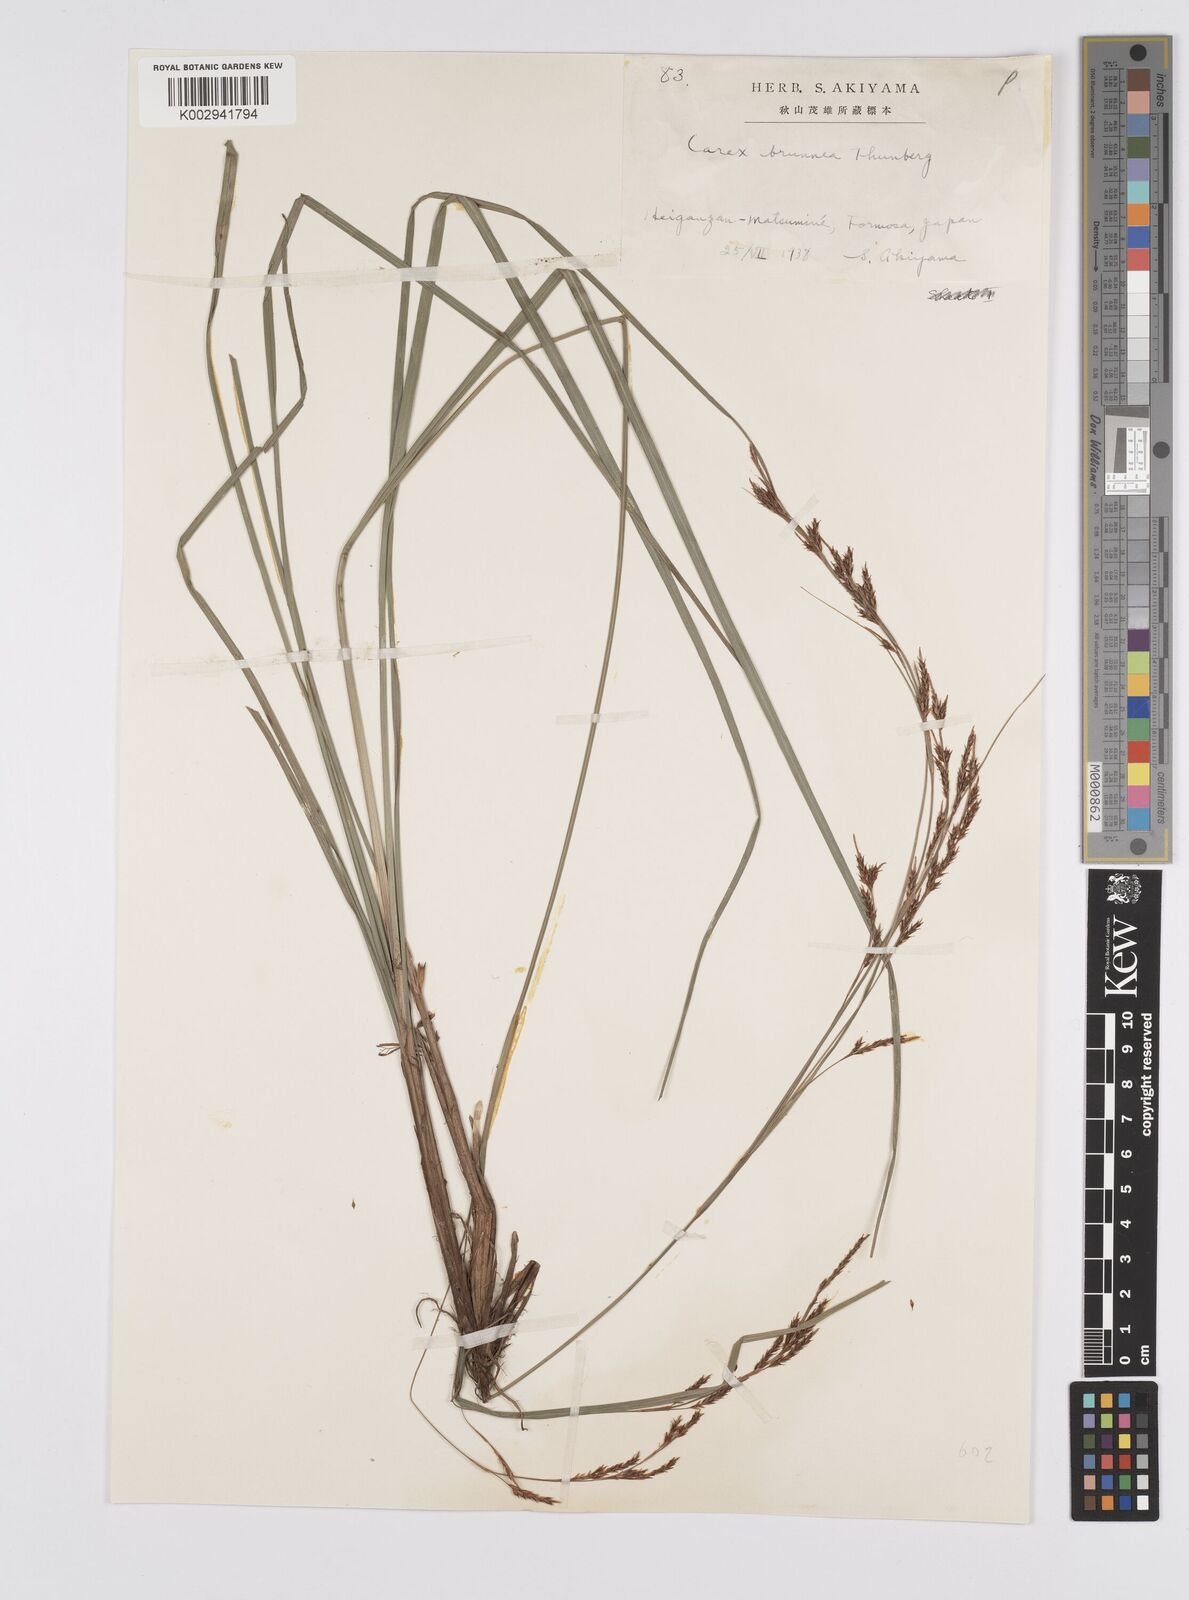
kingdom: Plantae
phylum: Tracheophyta
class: Liliopsida
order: Poales
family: Cyperaceae
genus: Carex
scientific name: Carex brunnea
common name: Greater brown sedge
